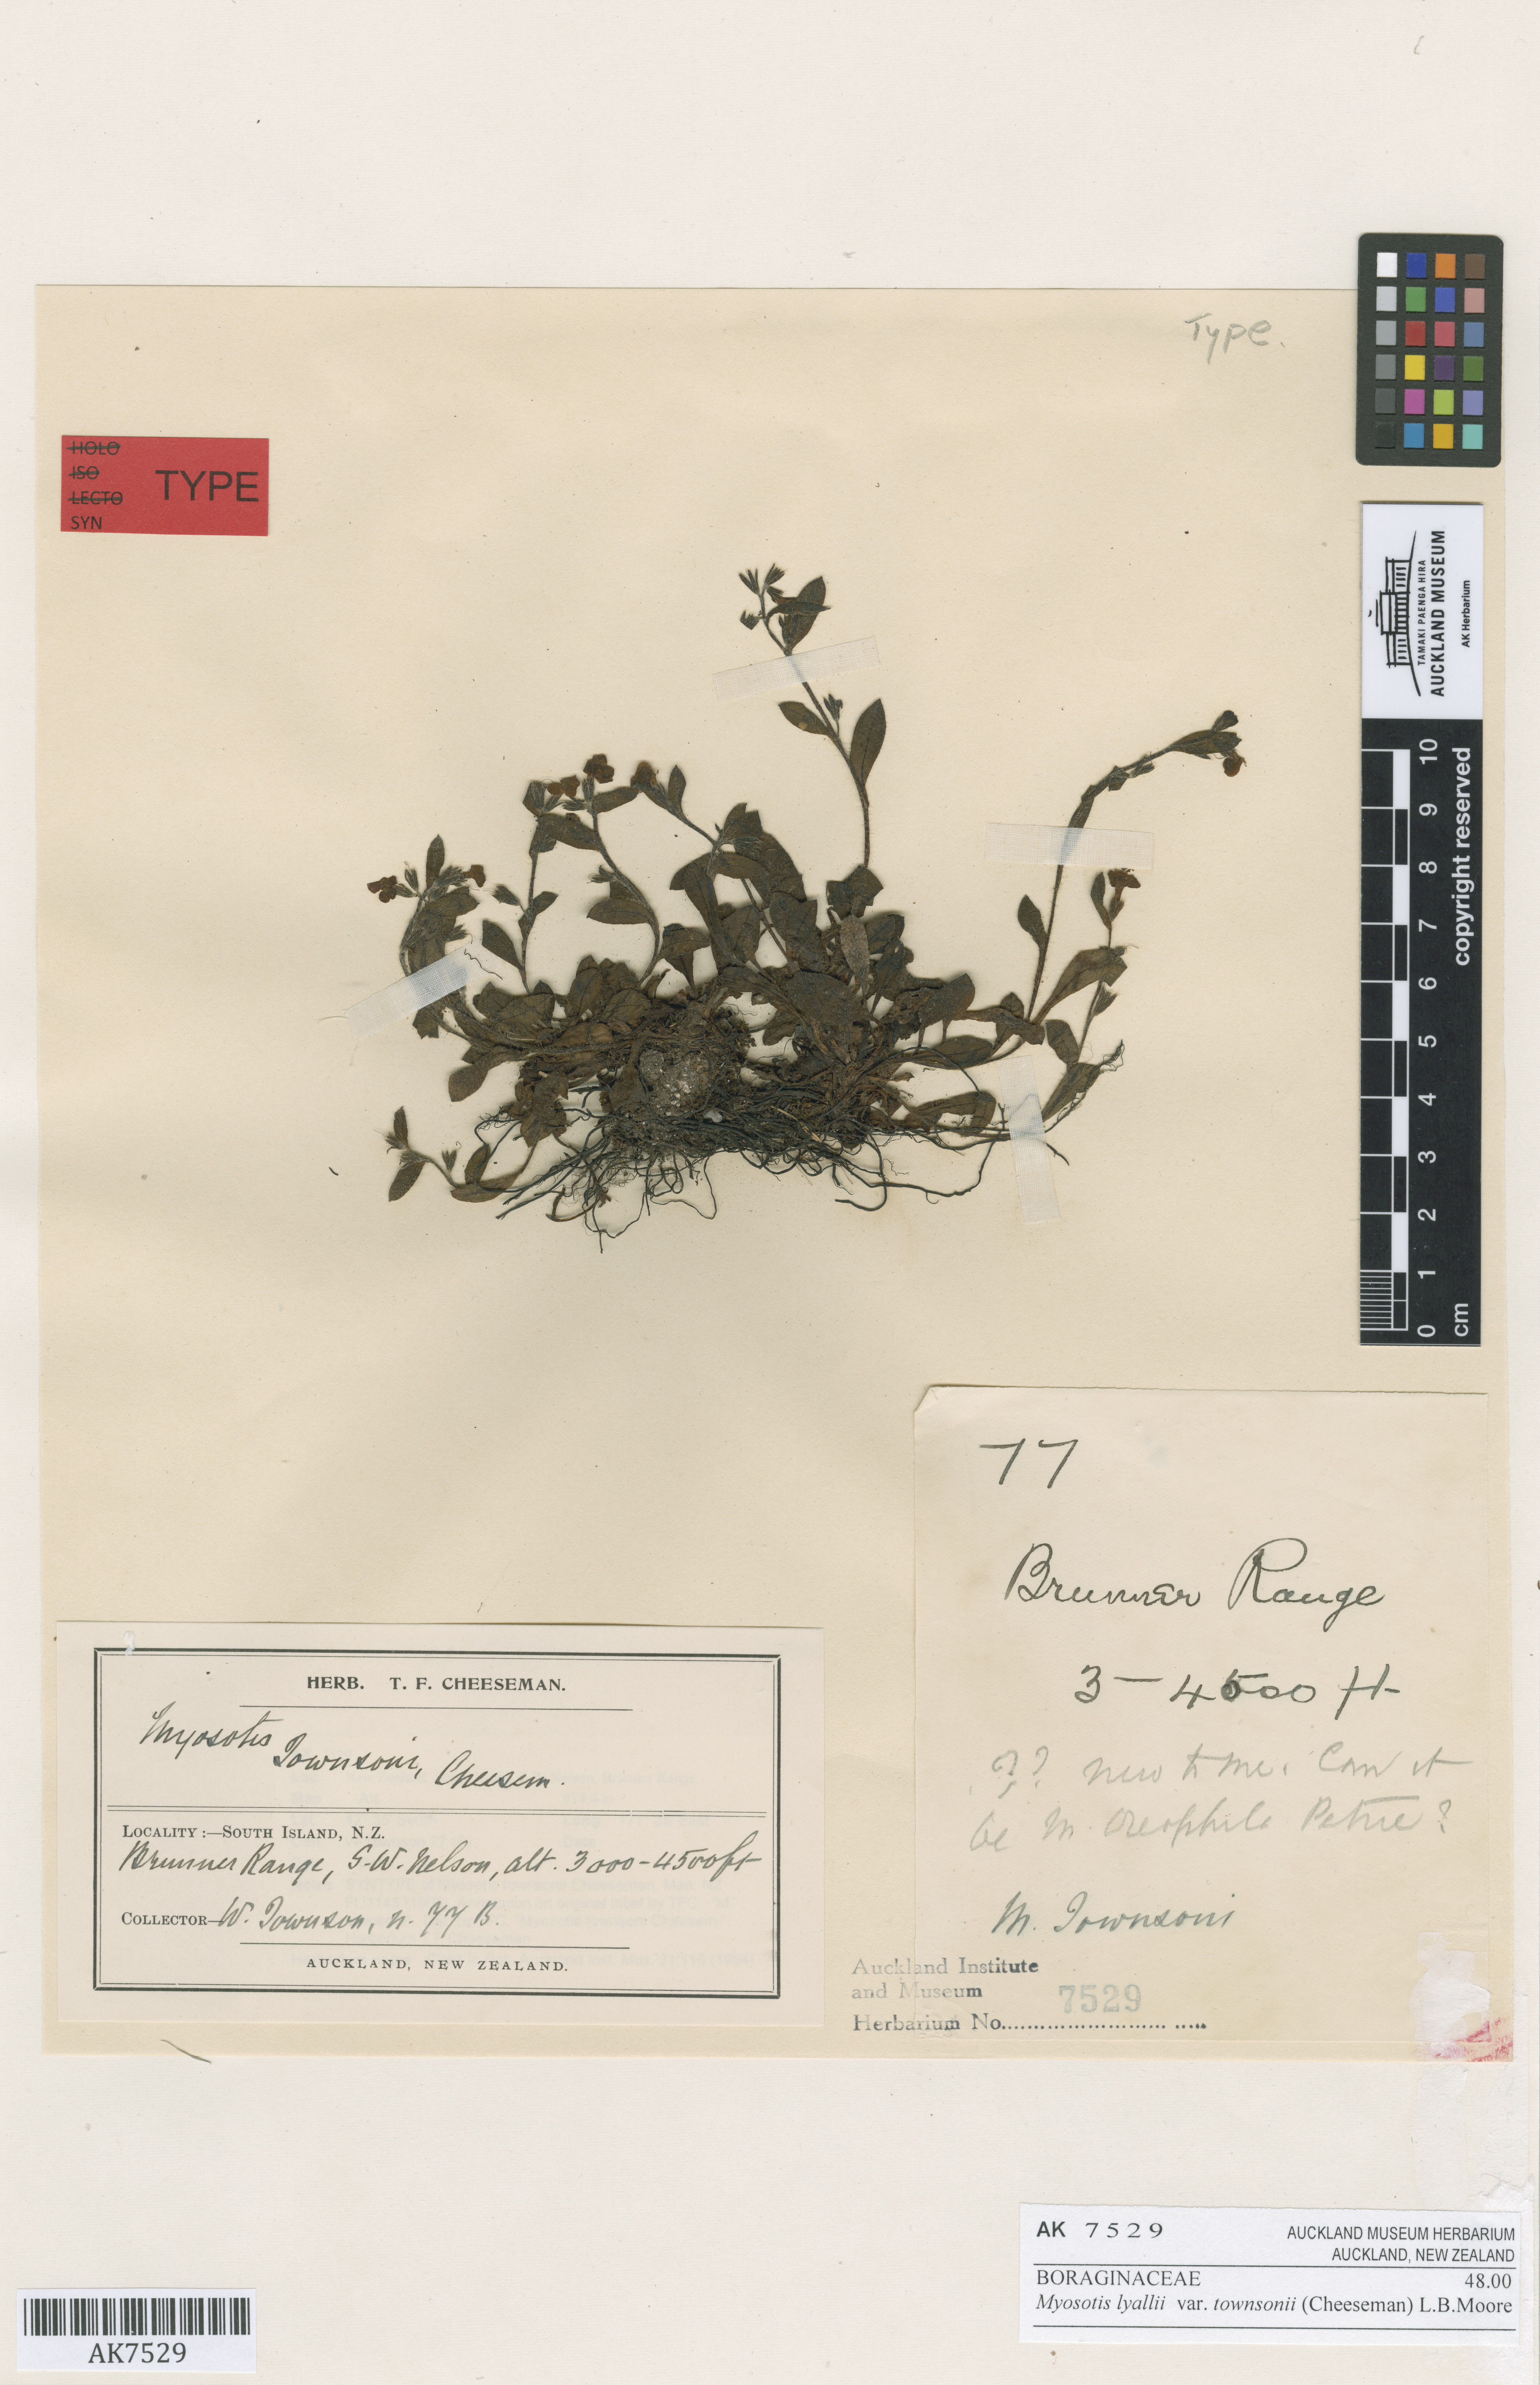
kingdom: Plantae
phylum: Tracheophyta
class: Magnoliopsida
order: Boraginales
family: Boraginaceae
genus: Myosotis
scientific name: Myosotis lyallii
